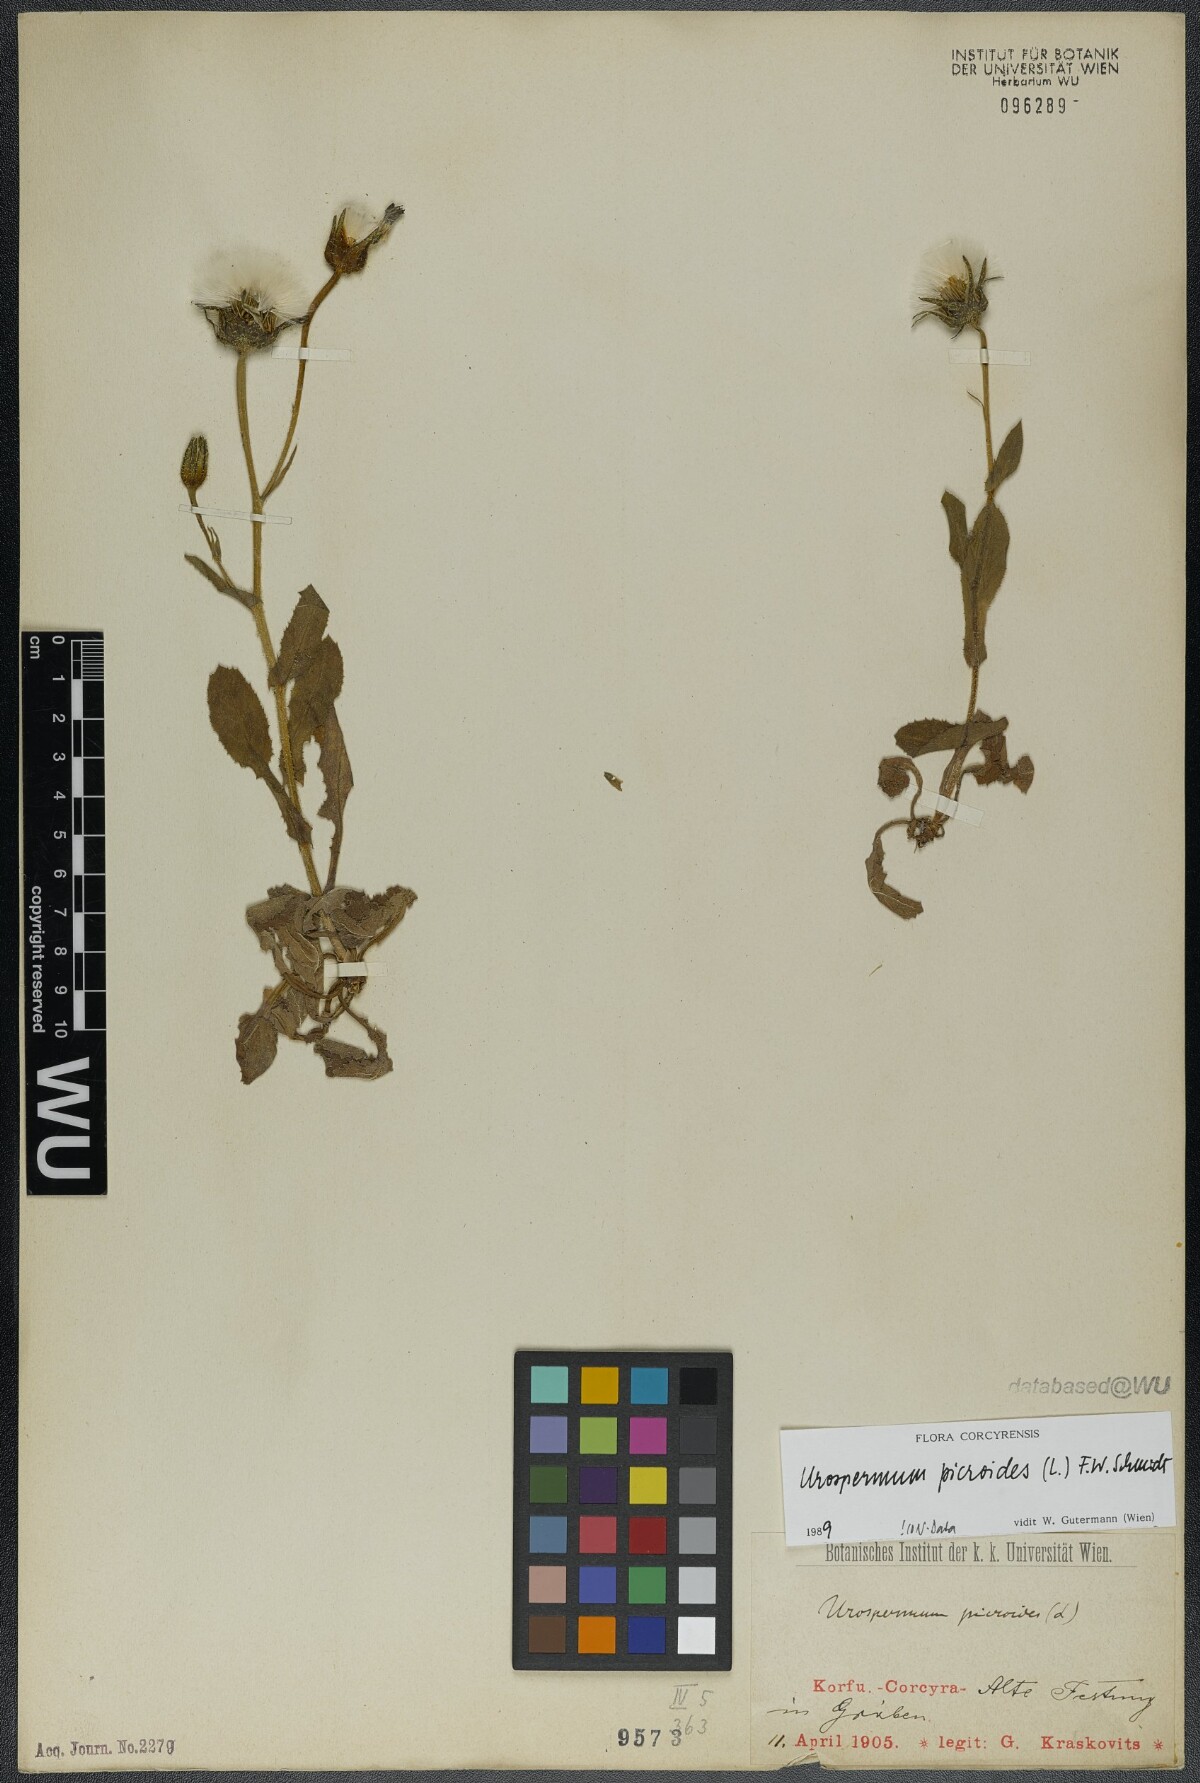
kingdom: Plantae
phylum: Tracheophyta
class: Magnoliopsida
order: Asterales
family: Asteraceae
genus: Urospermum
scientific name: Urospermum picroides
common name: False hawkbit
